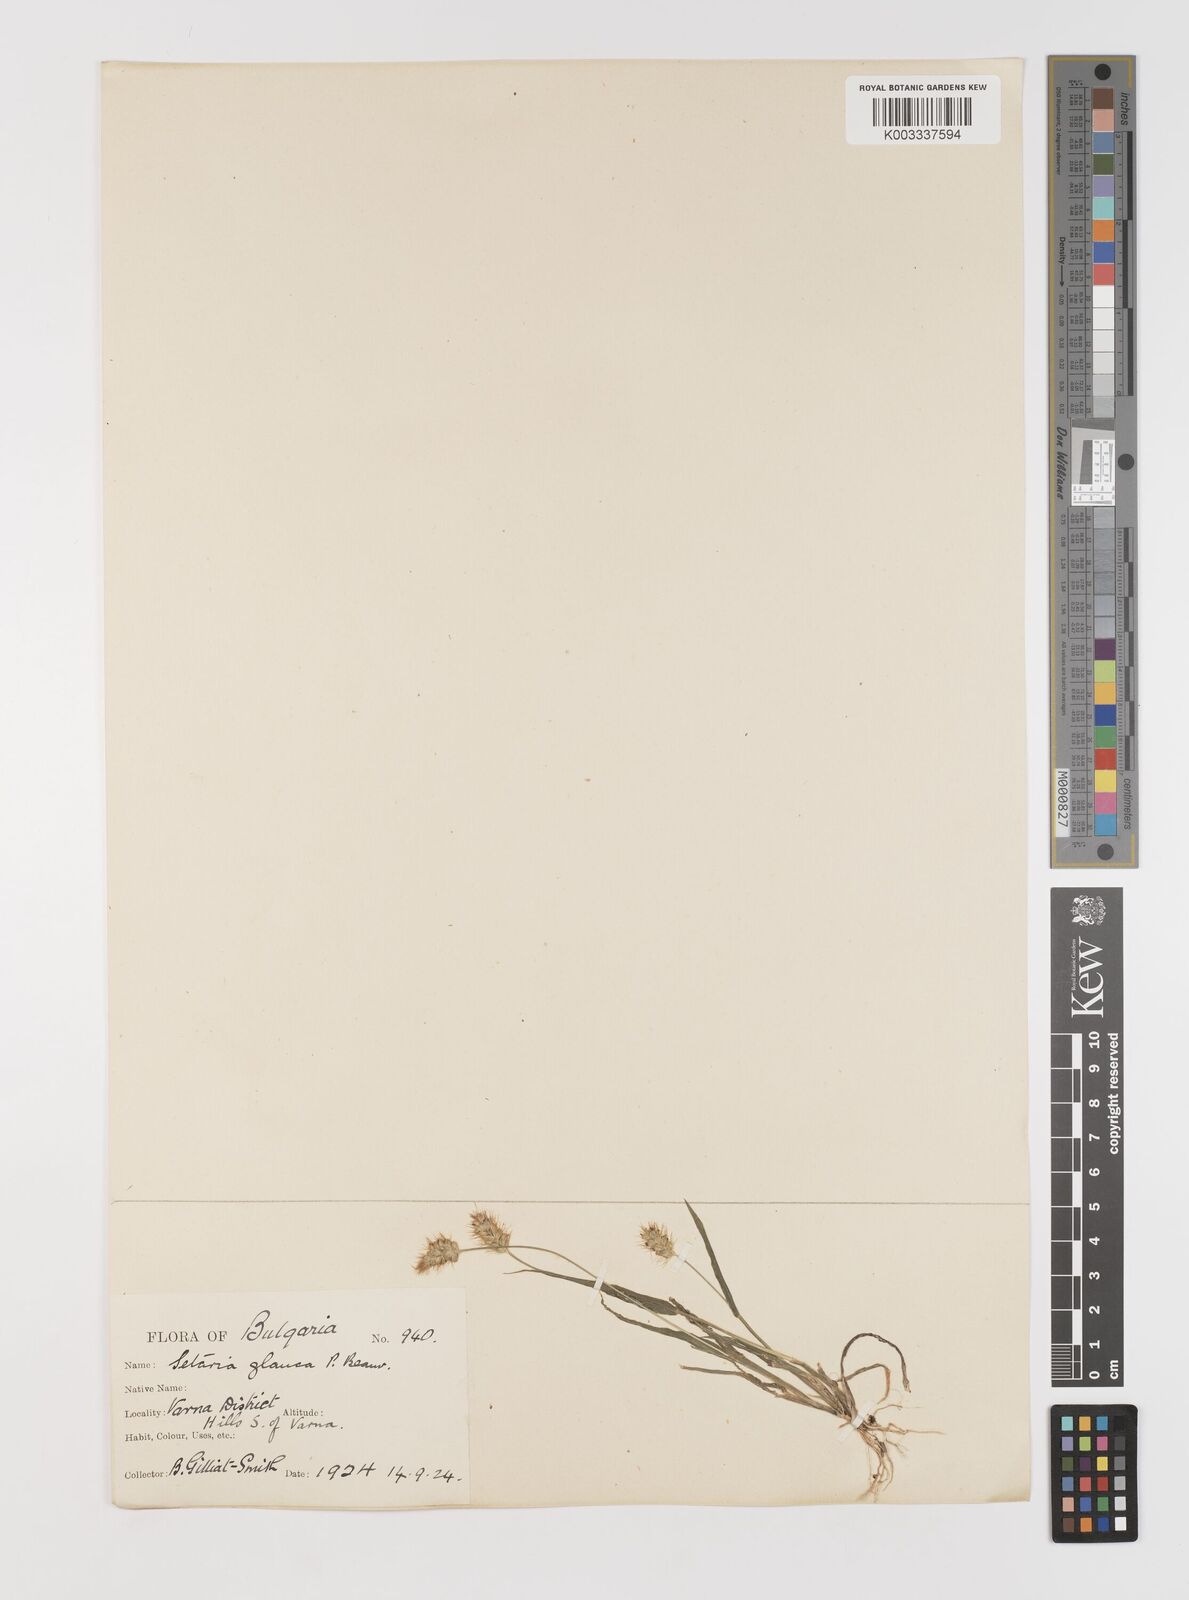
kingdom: Plantae
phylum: Tracheophyta
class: Liliopsida
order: Poales
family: Poaceae
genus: Setaria
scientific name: Setaria pumila
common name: Yellow bristle-grass
